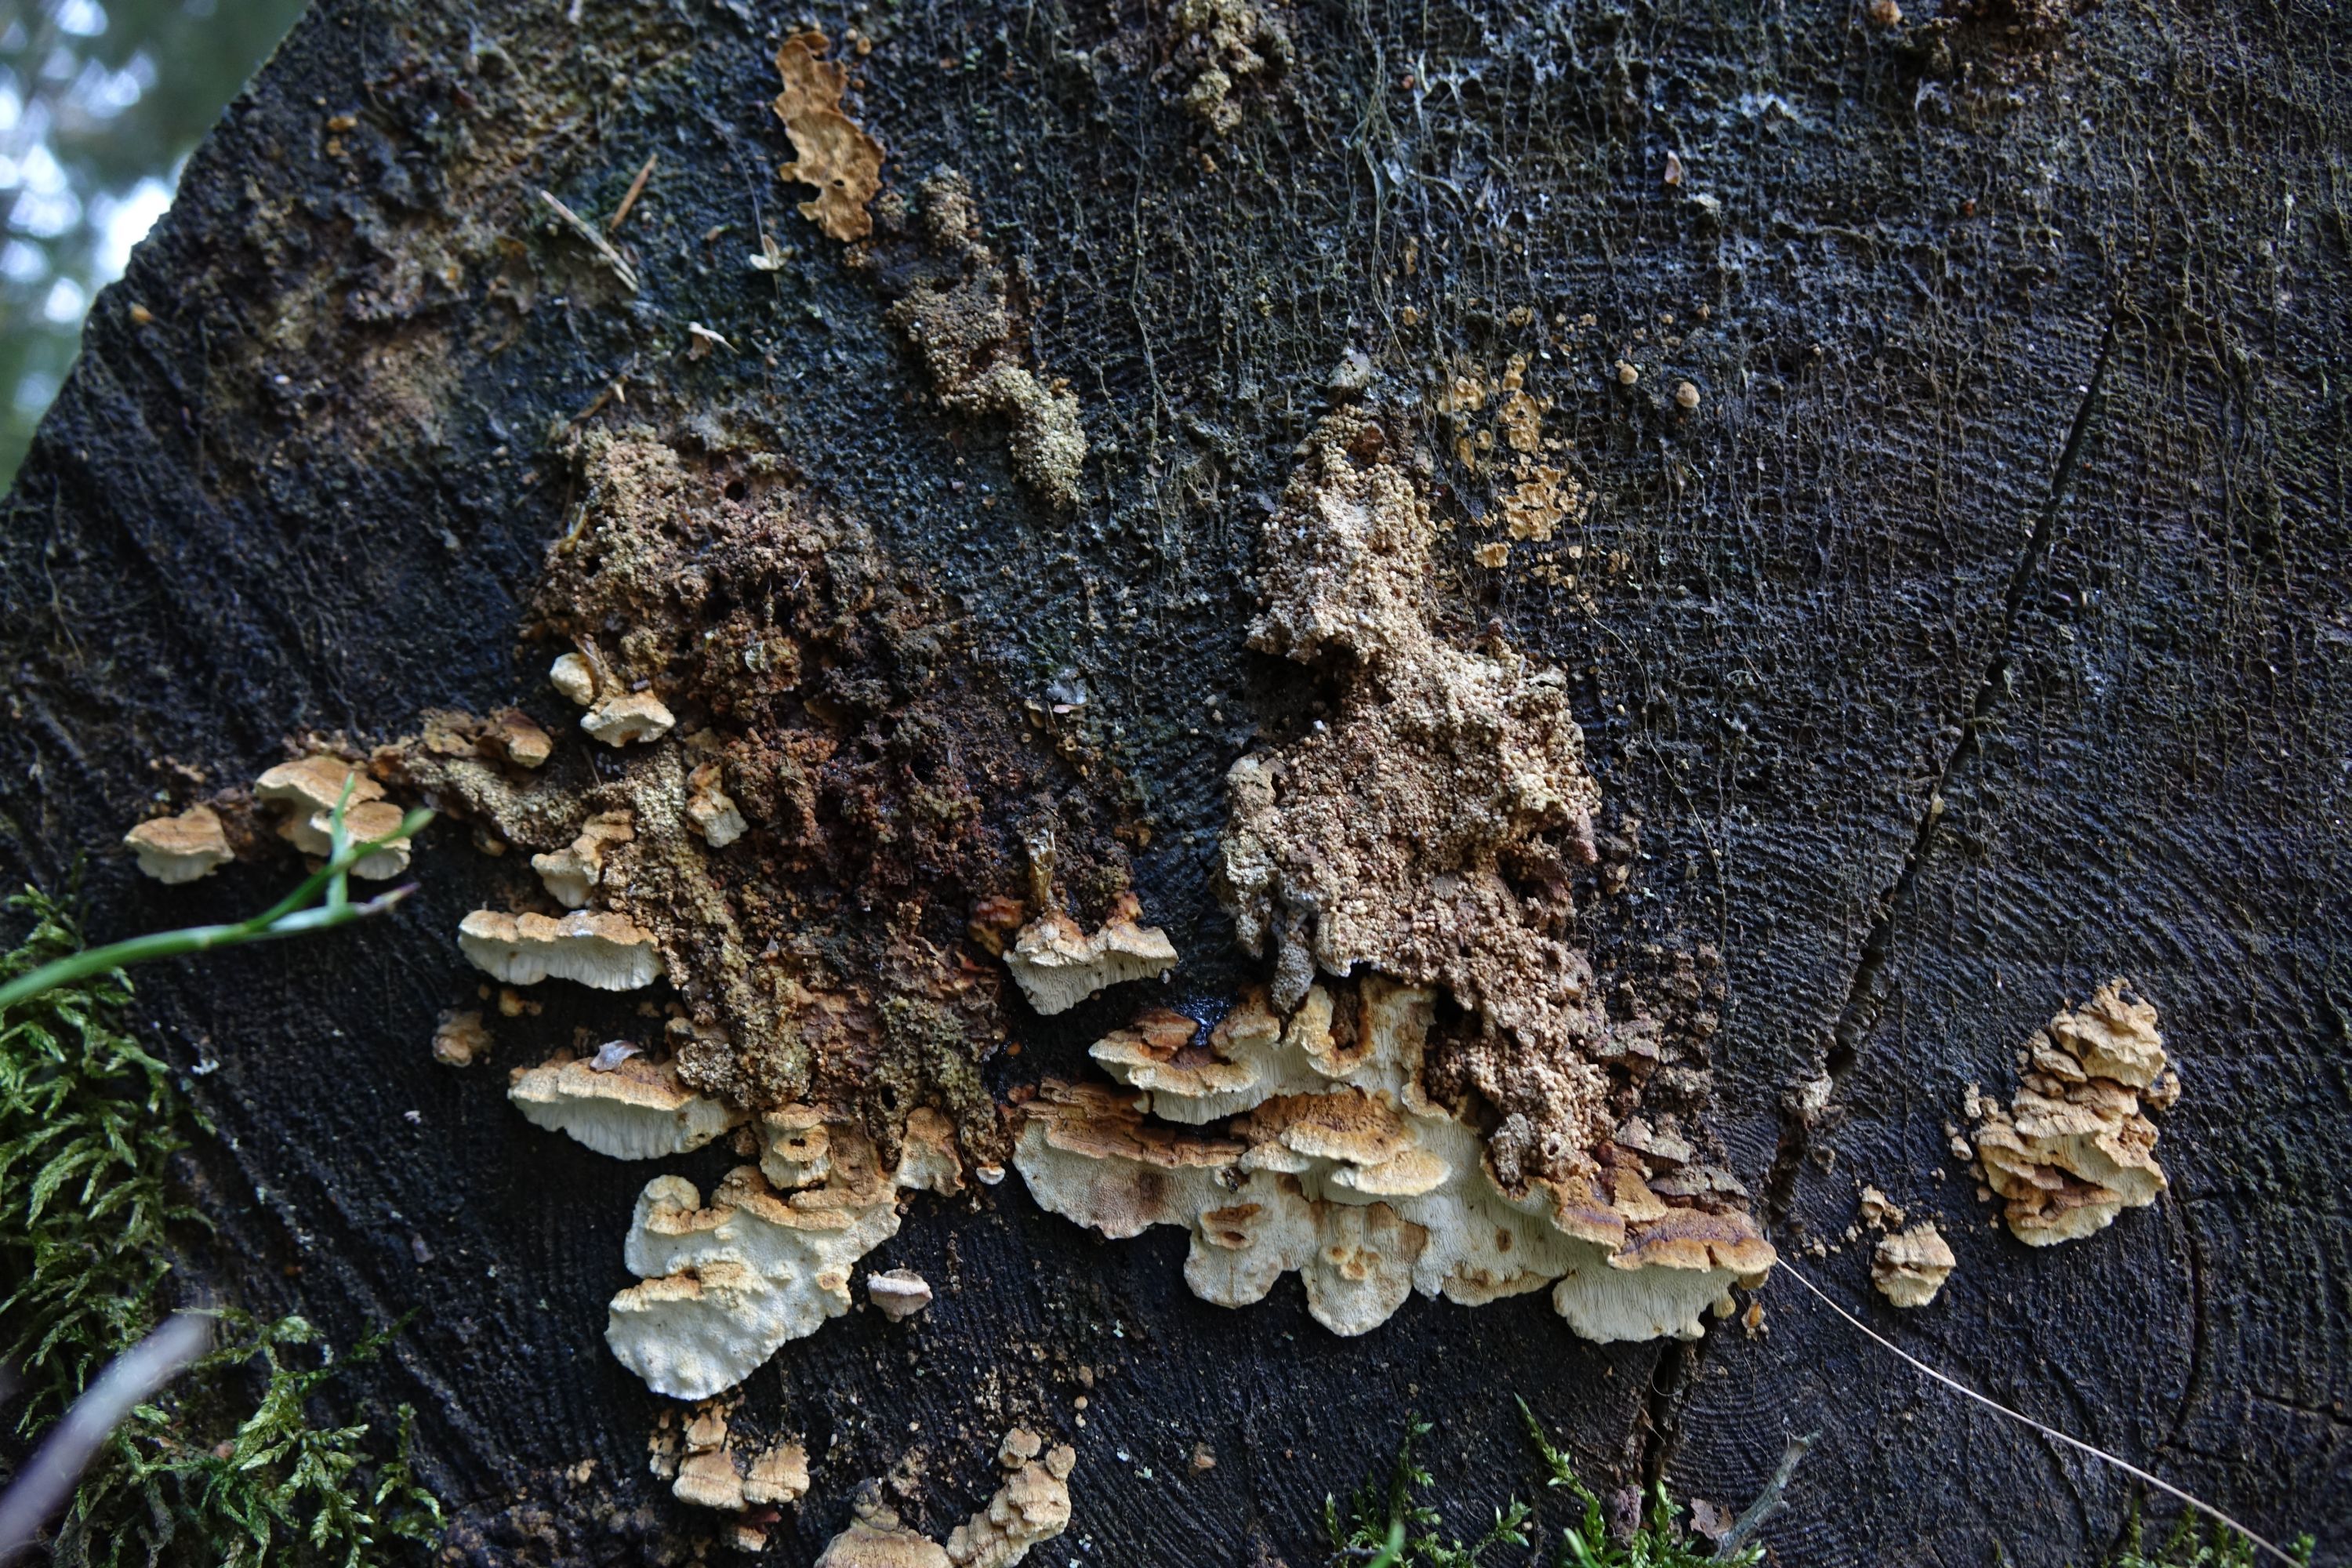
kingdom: Fungi
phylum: Basidiomycota
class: Agaricomycetes
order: Polyporales
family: Fomitopsidaceae
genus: Neoantrodia
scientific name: Neoantrodia serialis
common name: Serried porecrust
